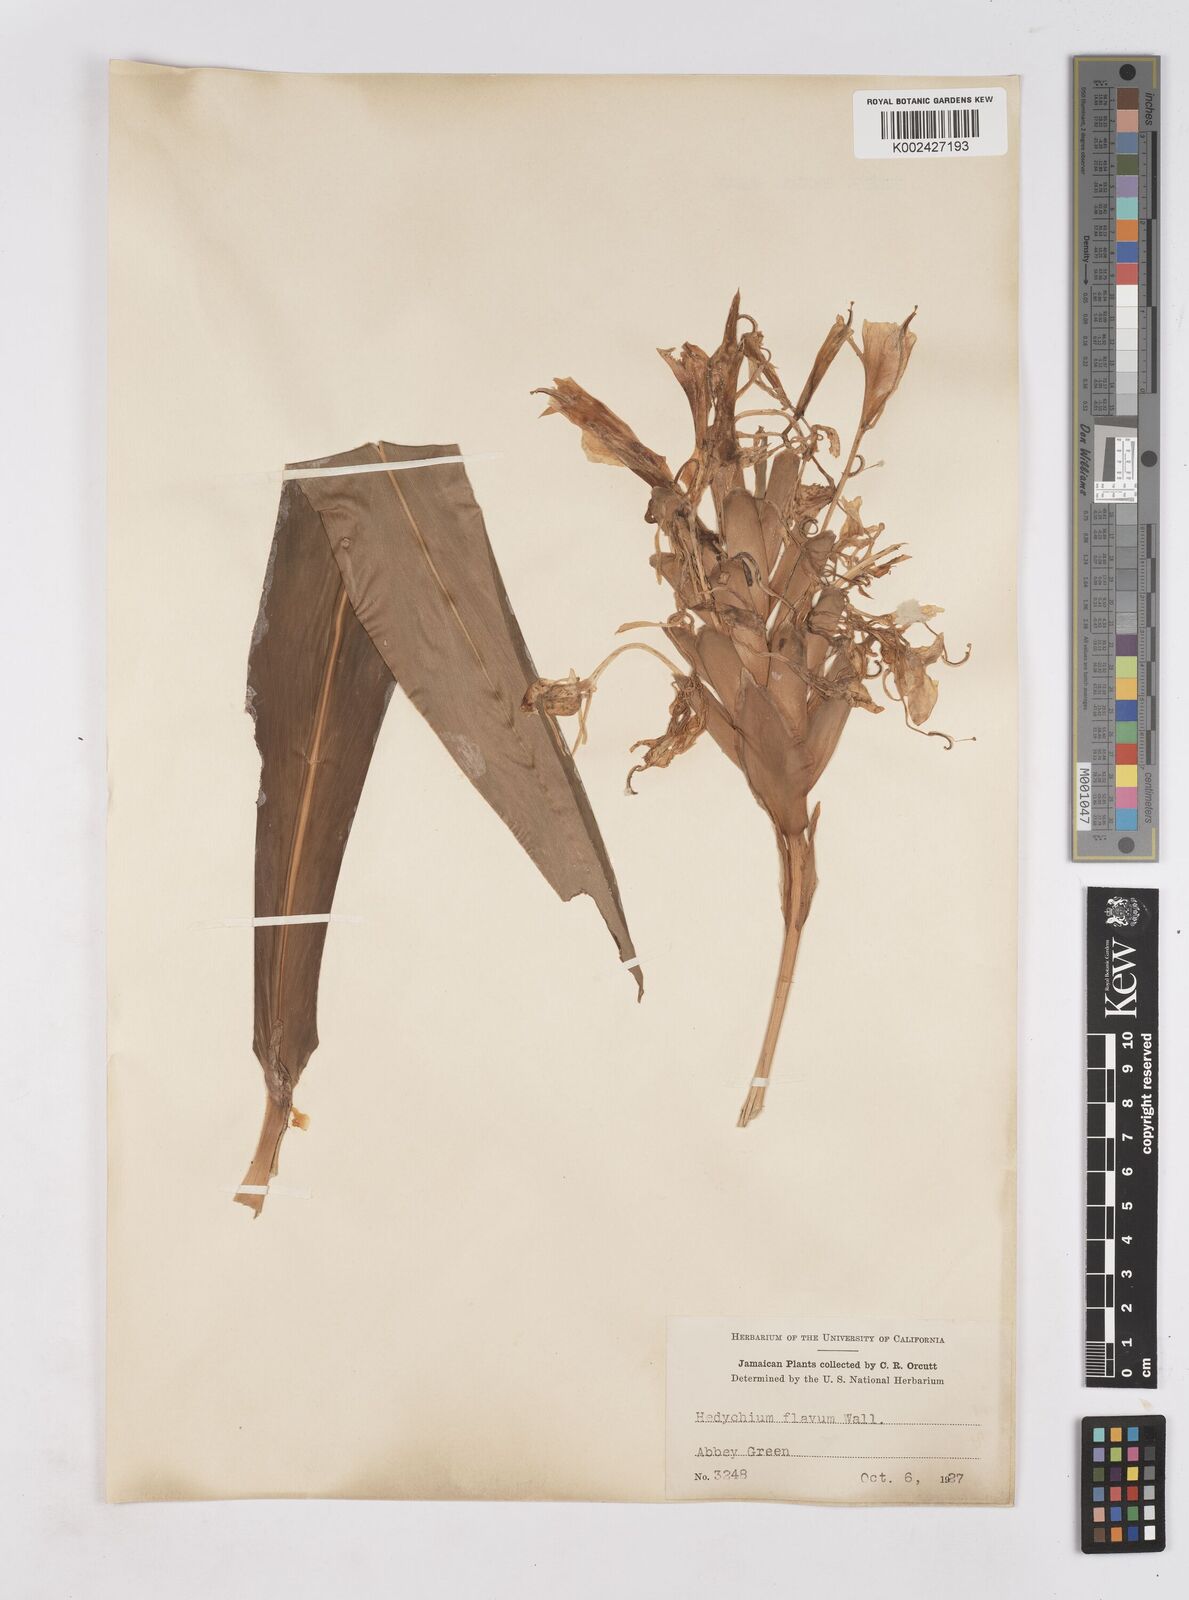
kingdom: Plantae
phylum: Tracheophyta
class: Liliopsida
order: Zingiberales
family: Zingiberaceae
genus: Hedychium
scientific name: Hedychium flavum
